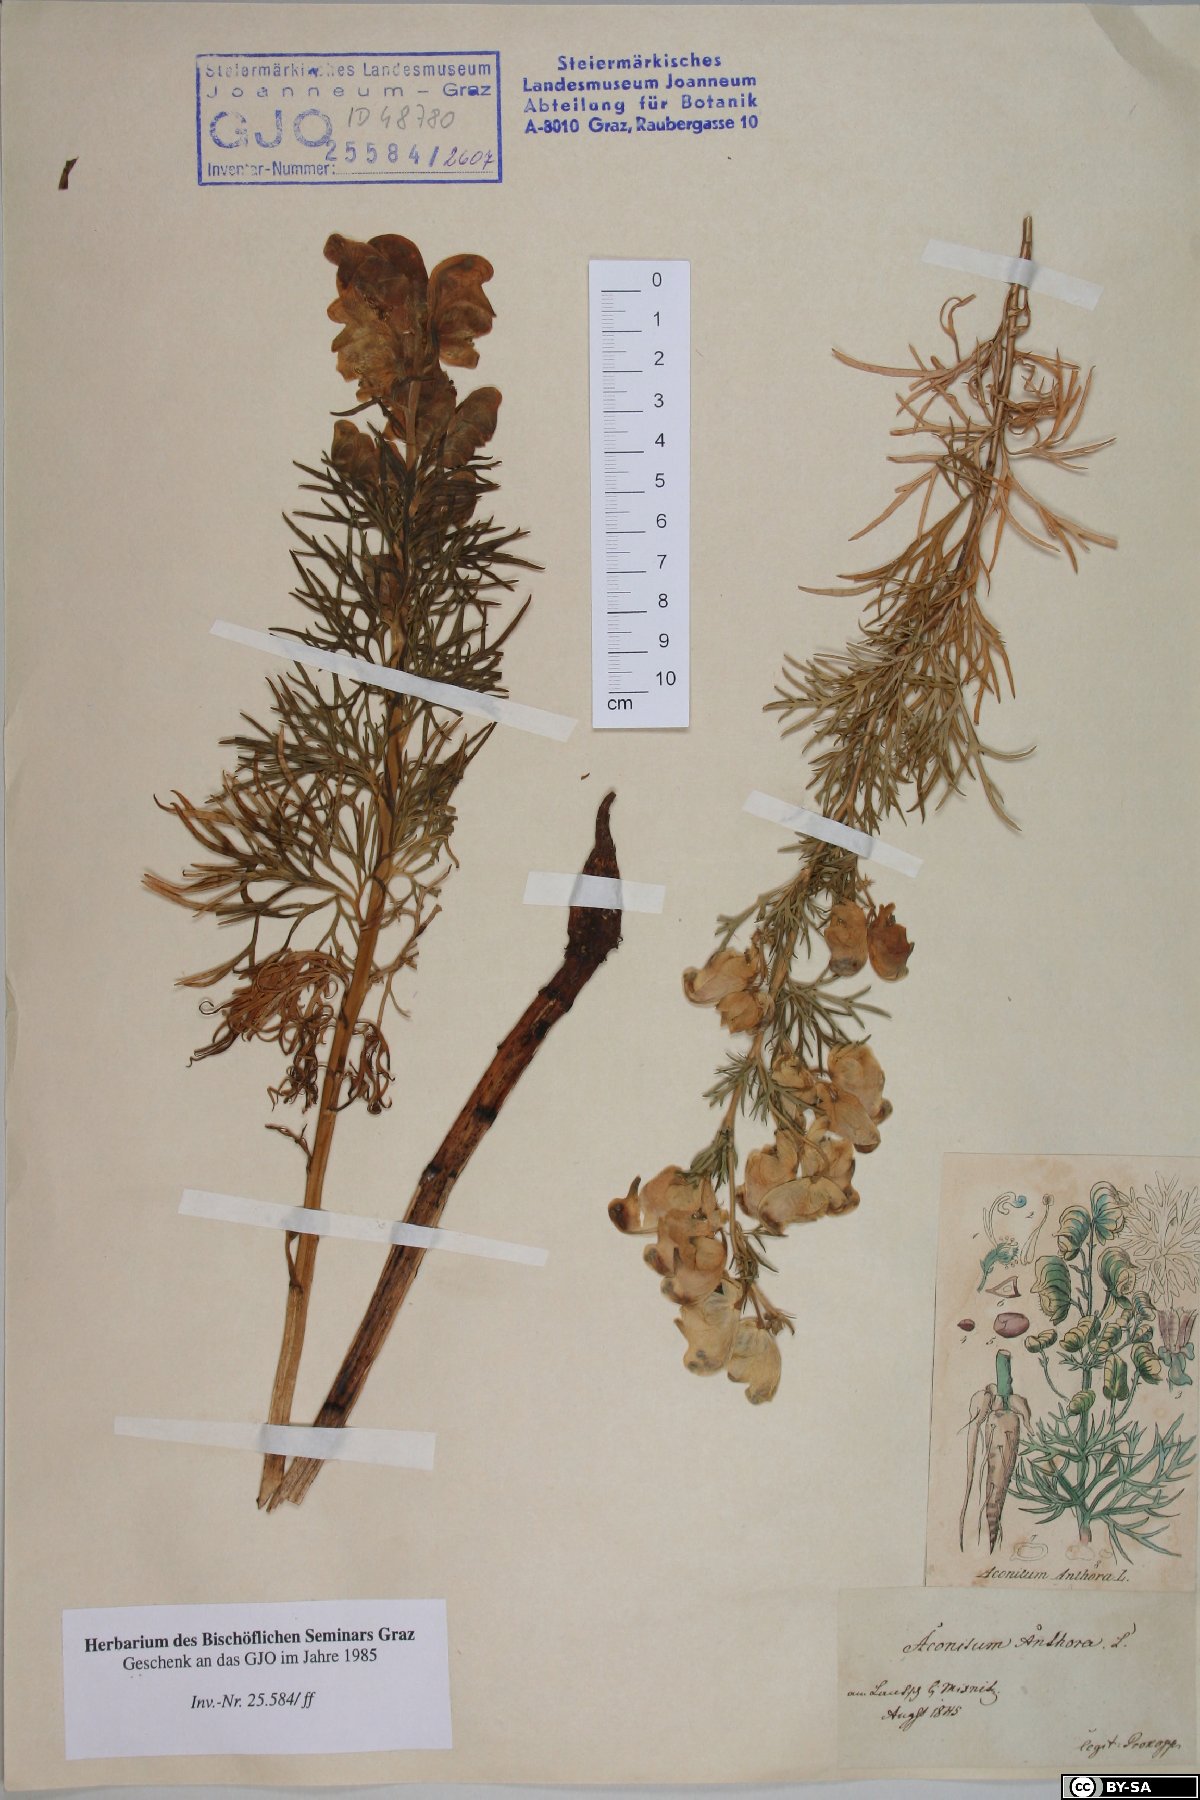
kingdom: Plantae
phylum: Tracheophyta
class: Magnoliopsida
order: Ranunculales
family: Ranunculaceae
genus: Aconitum
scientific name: Aconitum anthora
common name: Yellow monkshood
